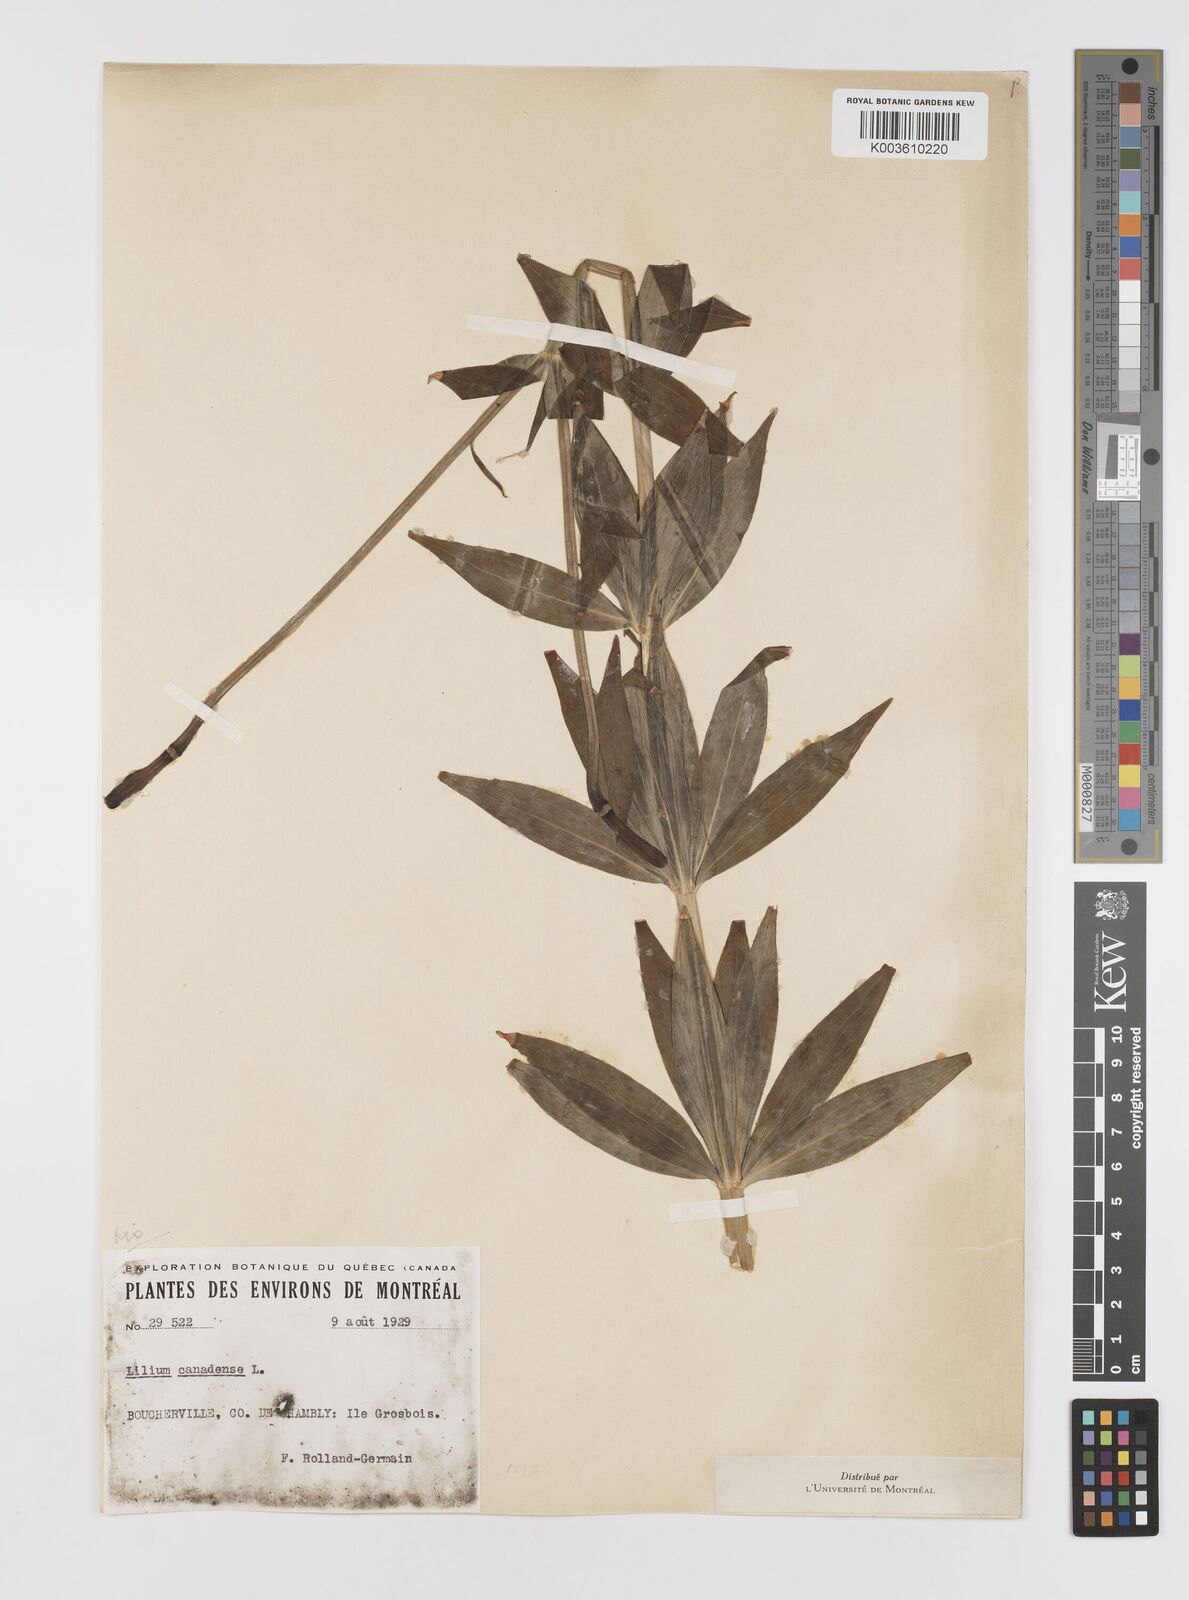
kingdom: Plantae
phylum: Tracheophyta
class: Liliopsida
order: Liliales
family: Liliaceae
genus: Lilium
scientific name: Lilium canadense
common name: Canada lily
